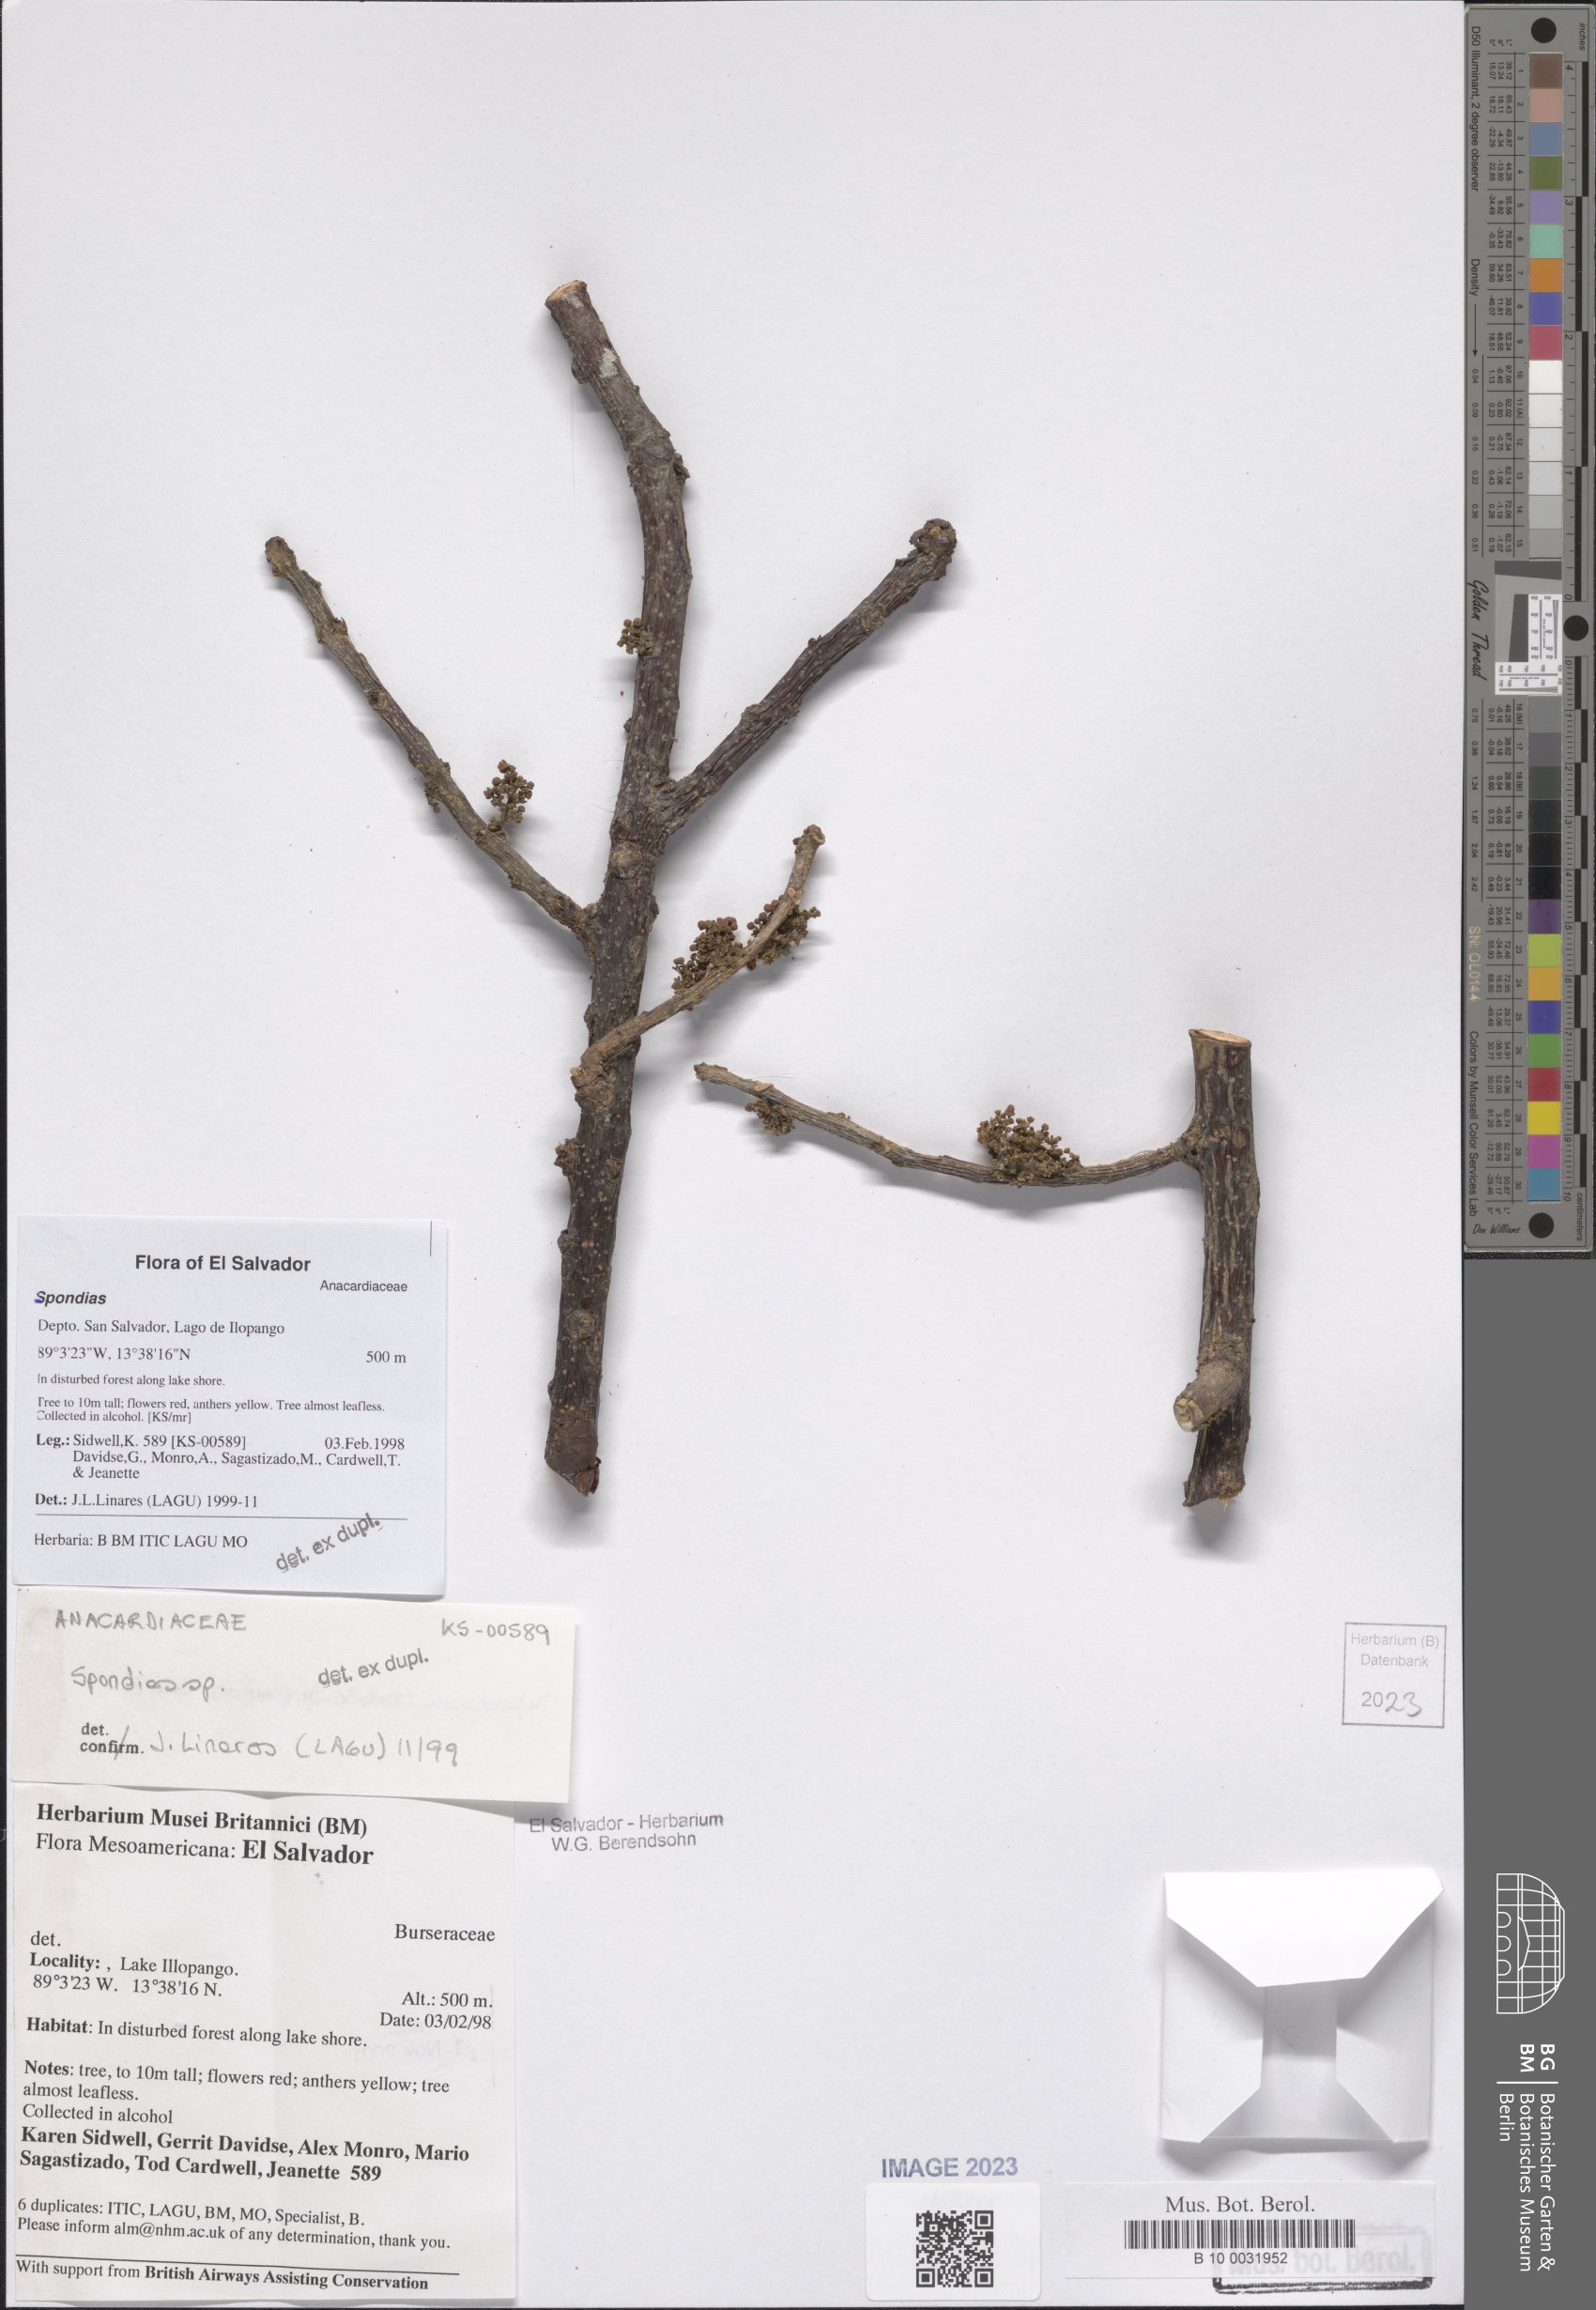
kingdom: Plantae
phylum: Tracheophyta
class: Magnoliopsida
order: Sapindales
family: Anacardiaceae
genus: Spondias
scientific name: Spondias
